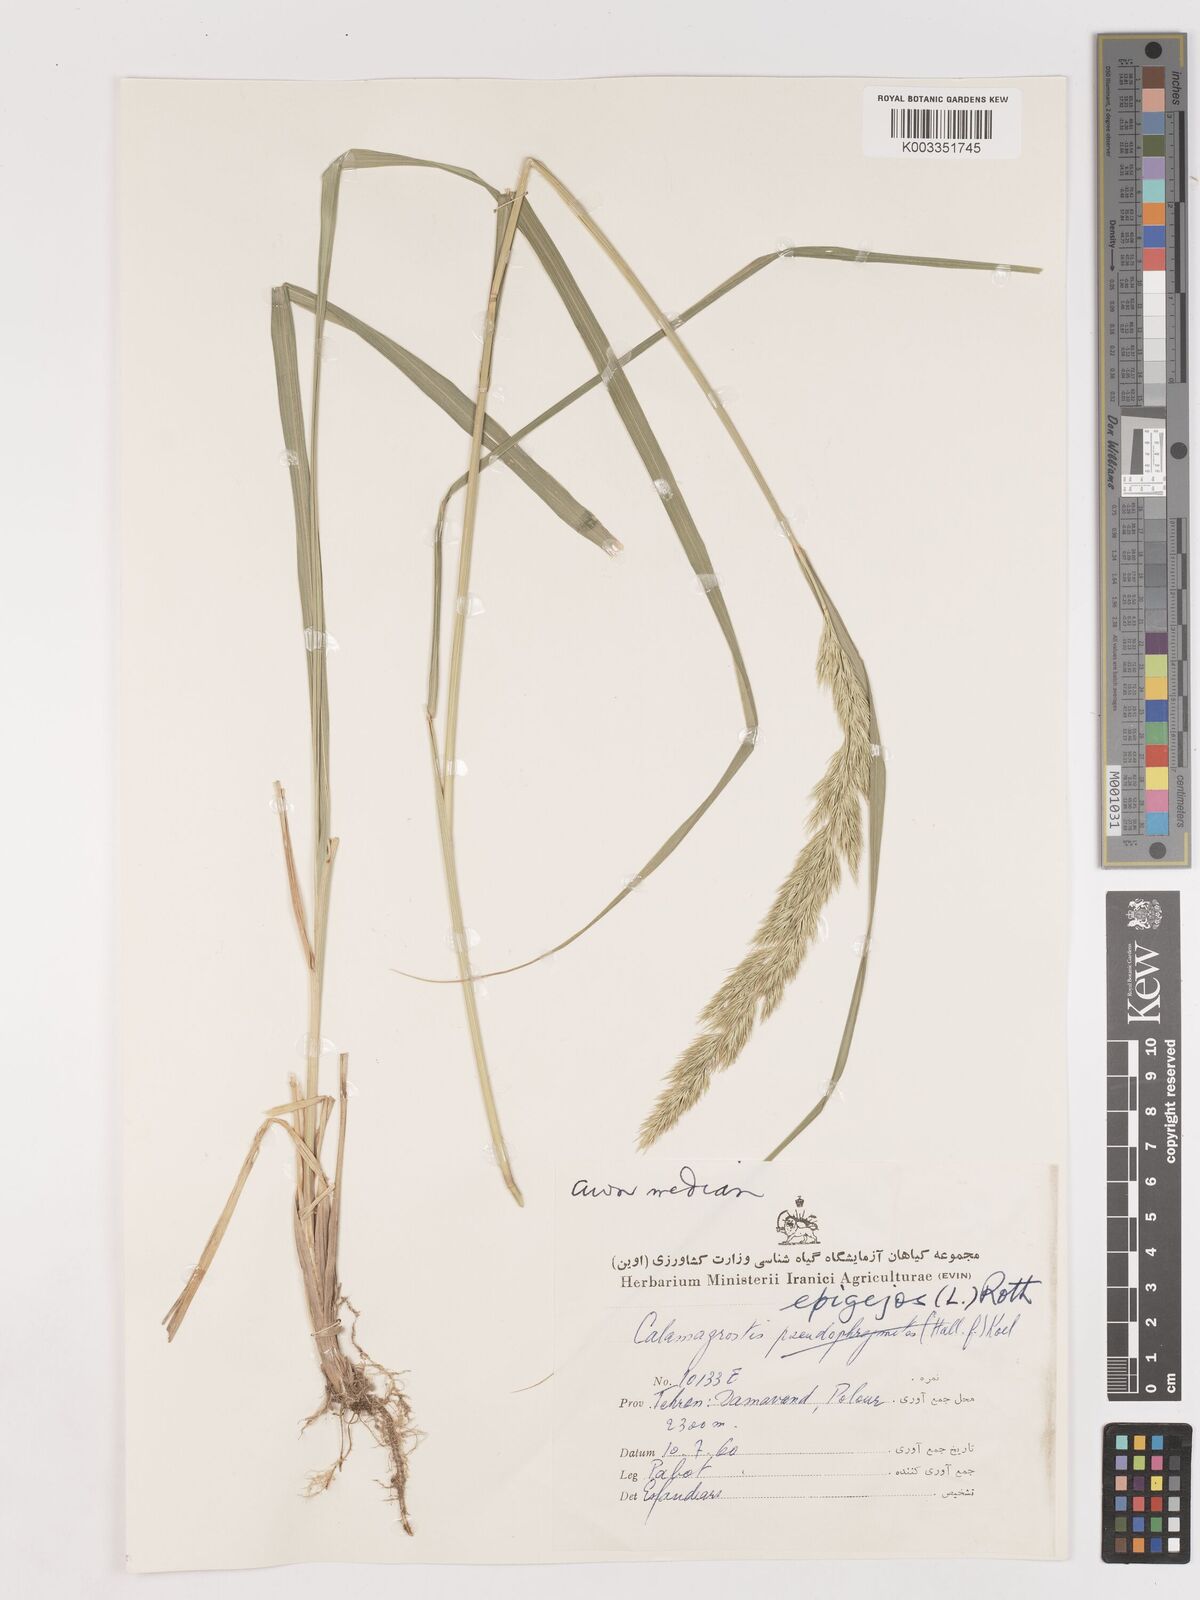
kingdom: Plantae
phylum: Tracheophyta
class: Liliopsida
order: Poales
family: Poaceae
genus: Calamagrostis
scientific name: Calamagrostis
